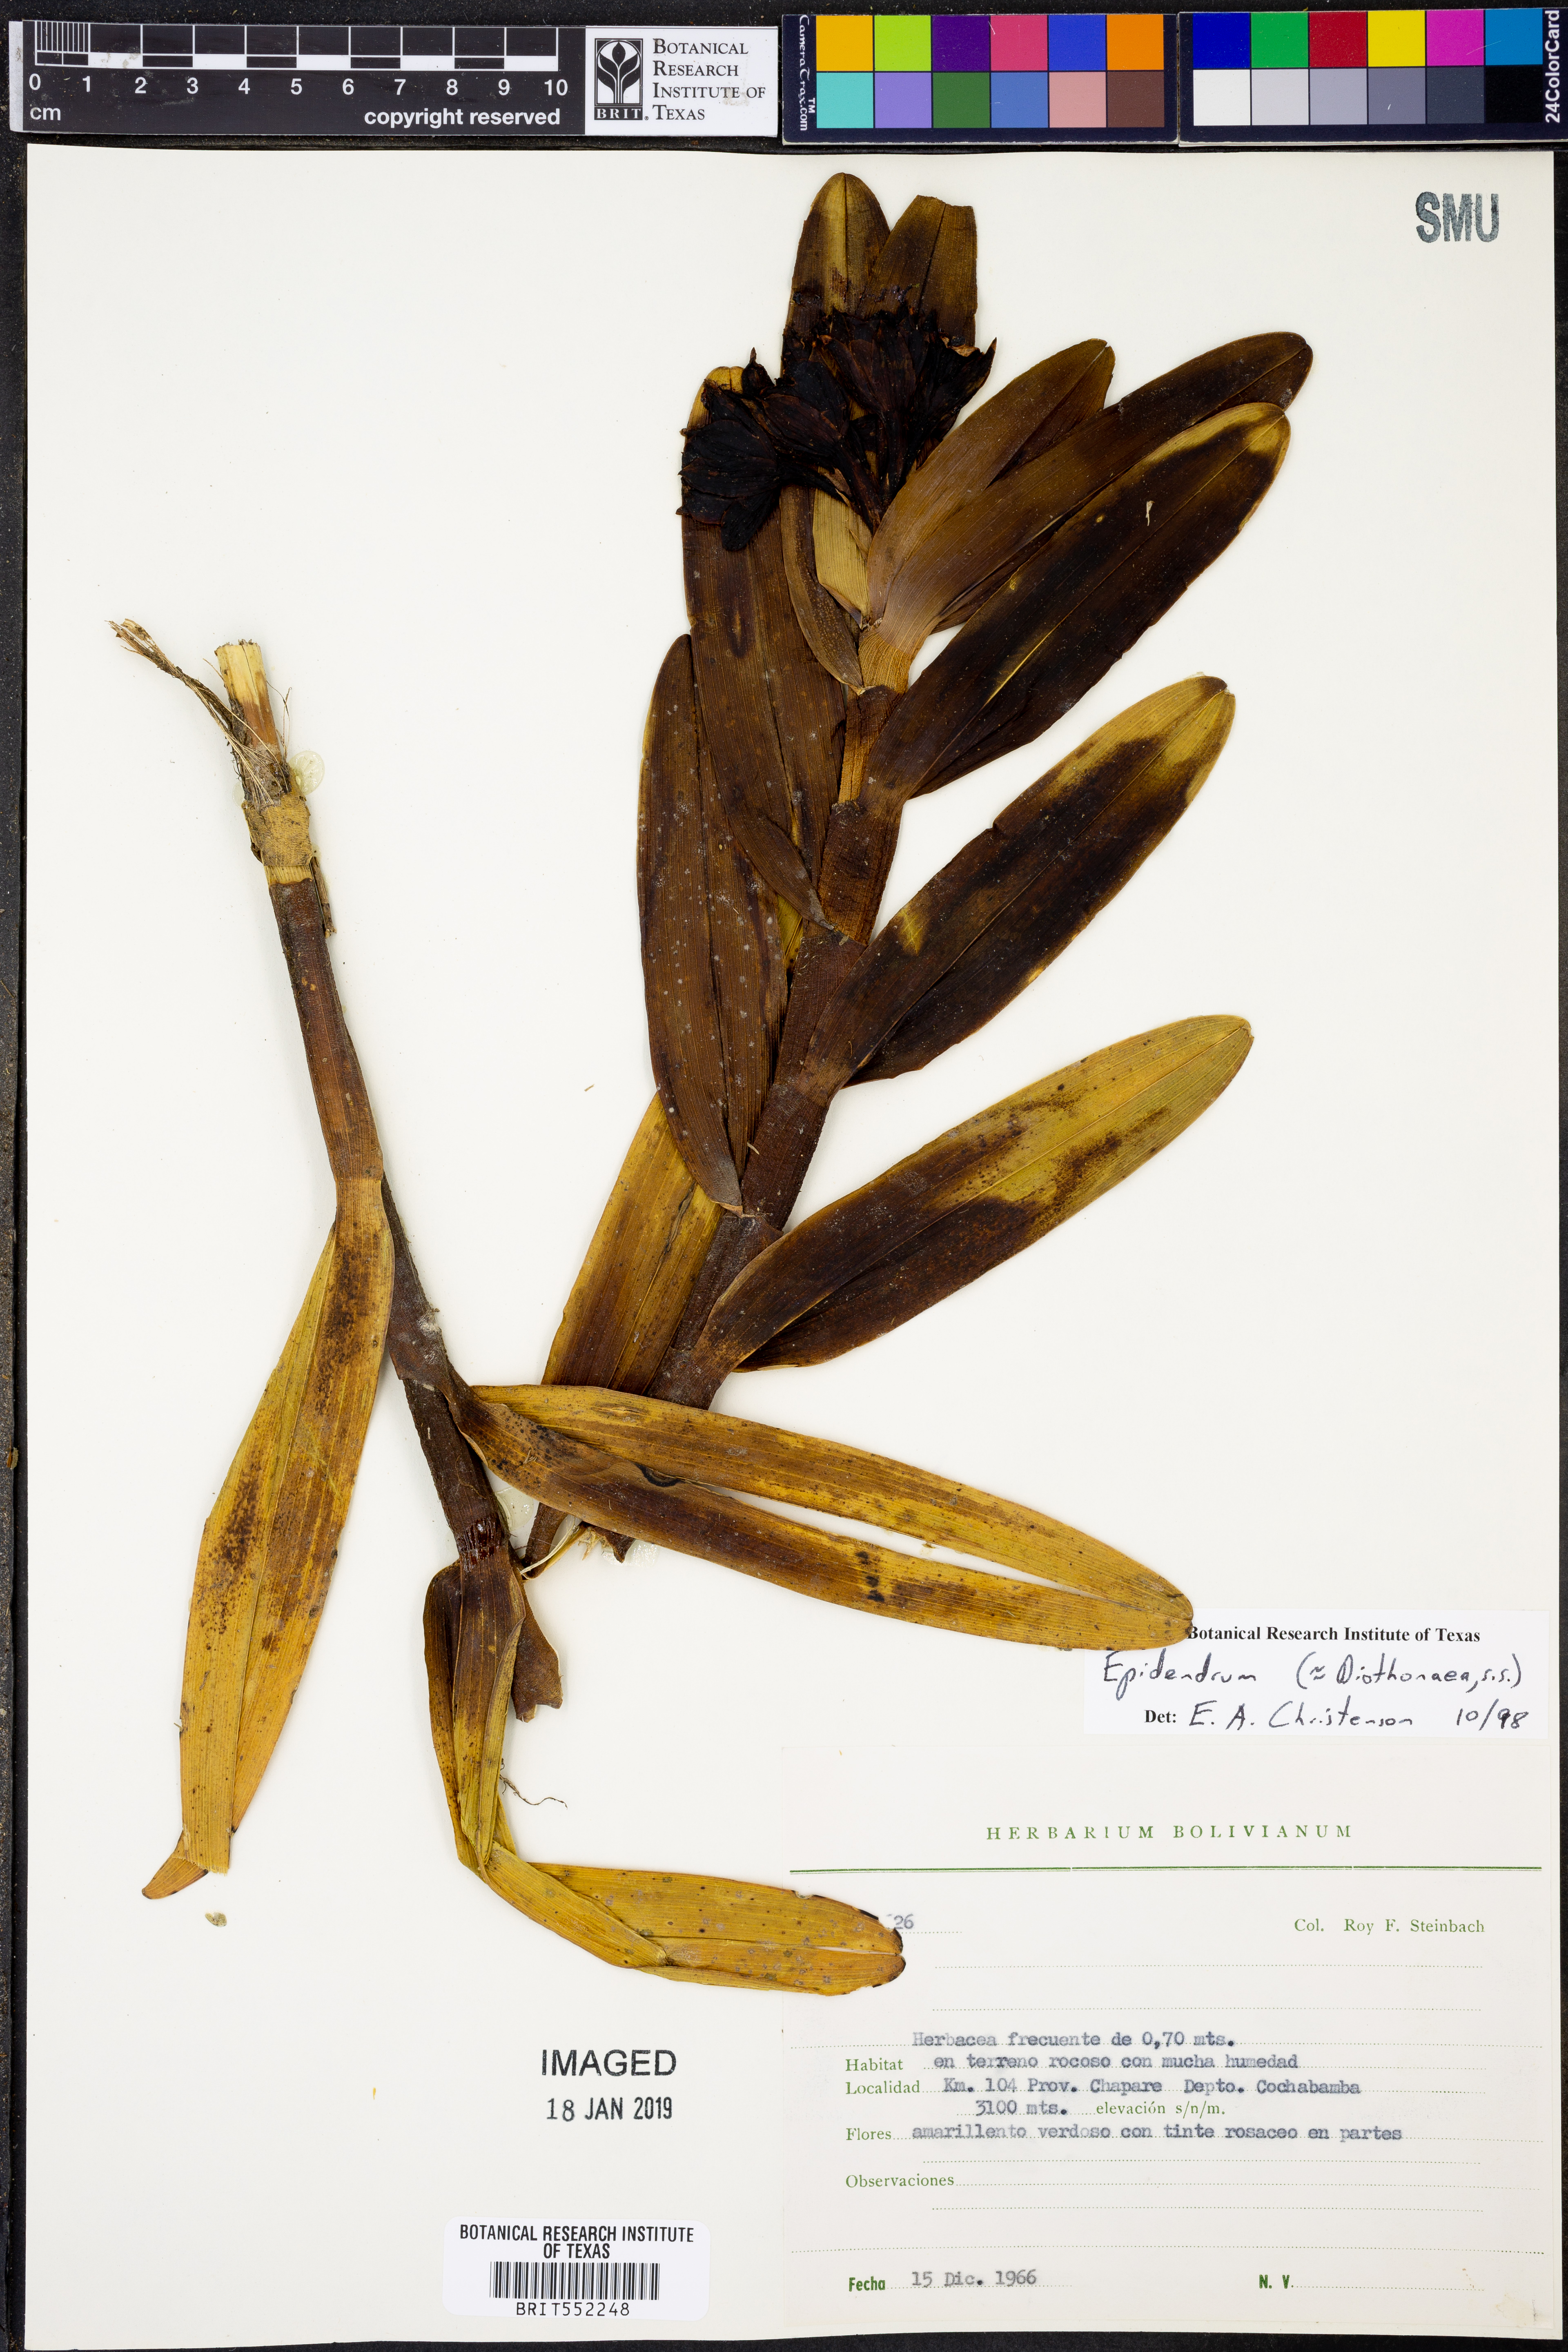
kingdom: Plantae
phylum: Tracheophyta
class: Liliopsida
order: Asparagales
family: Orchidaceae
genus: Epidendrum
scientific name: Epidendrum
